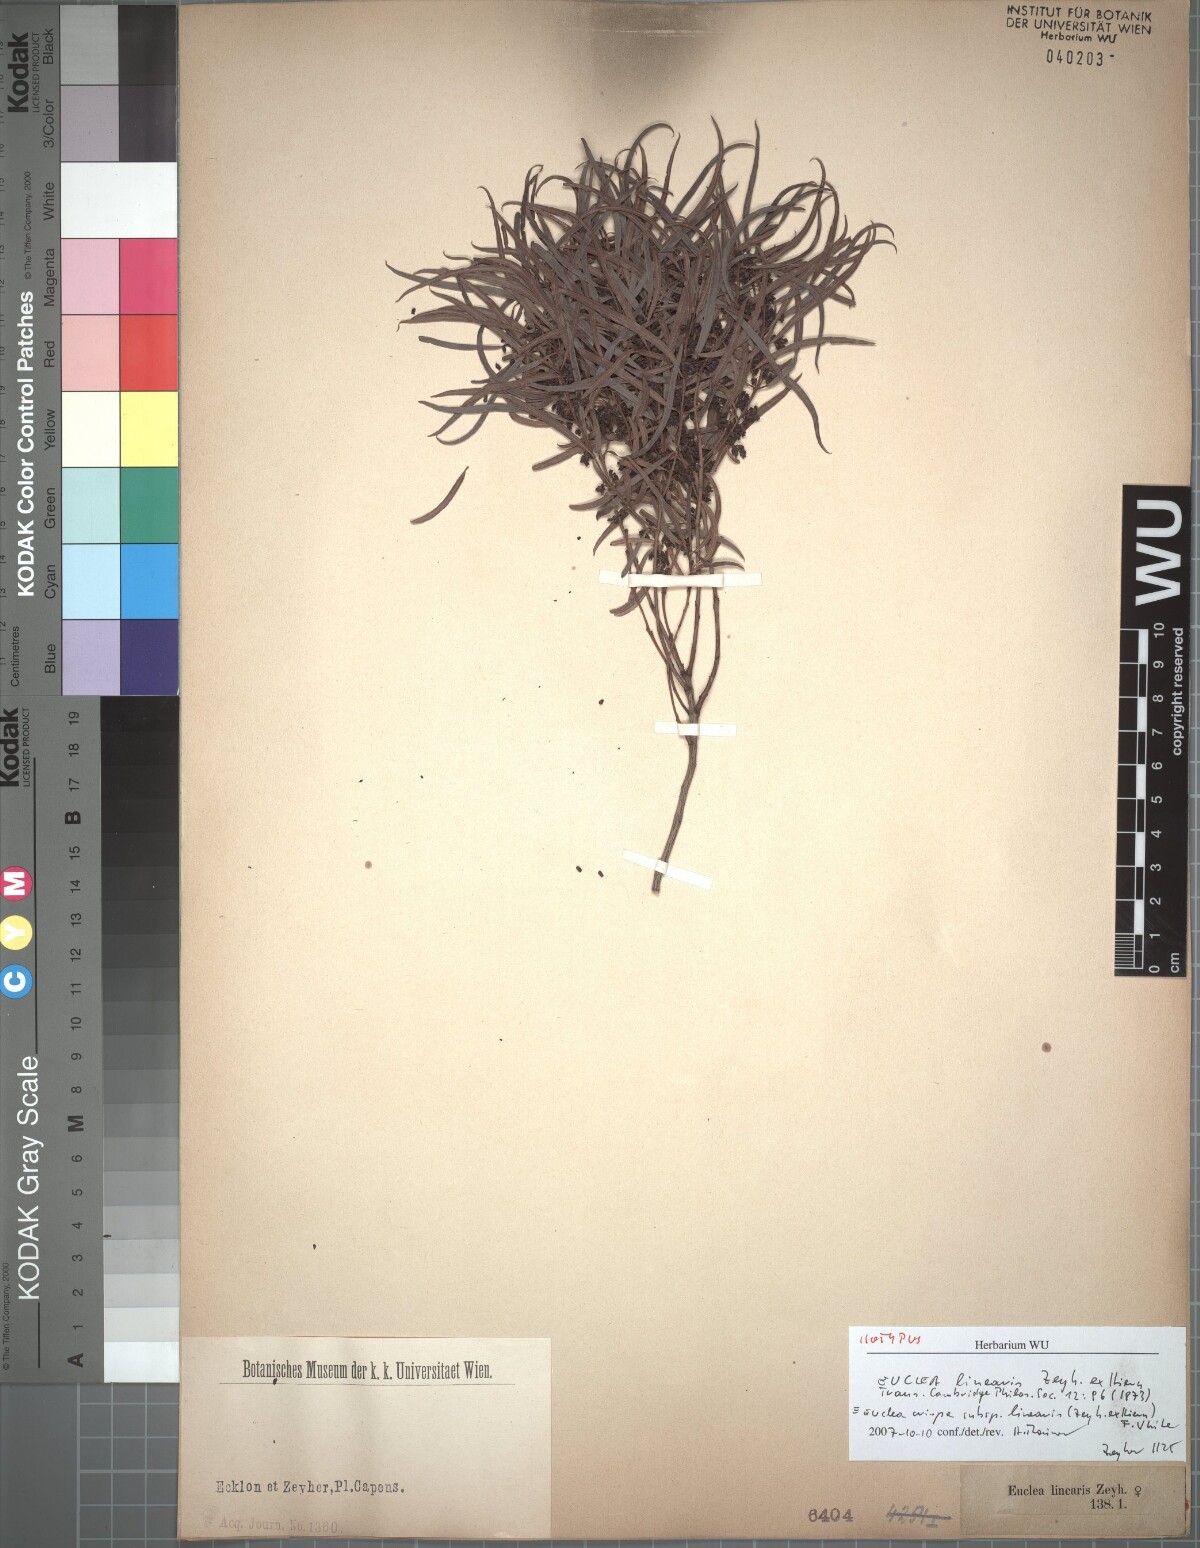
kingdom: Plantae
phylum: Tracheophyta
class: Magnoliopsida
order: Ericales
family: Ebenaceae
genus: Euclea
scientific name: Euclea crispa
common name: Blue guarri
